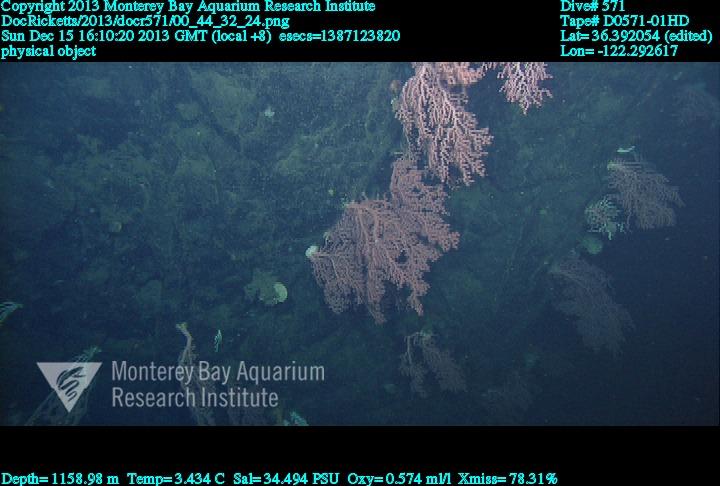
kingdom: Animalia
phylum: Cnidaria
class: Anthozoa
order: Scleralcyonacea
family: Coralliidae
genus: Paragorgia
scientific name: Paragorgia arborea
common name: Bubble gum coral
